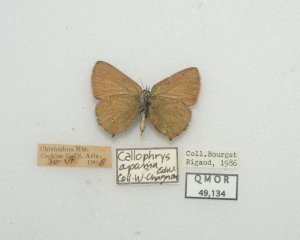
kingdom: Animalia
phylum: Arthropoda
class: Insecta
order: Lepidoptera
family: Lycaenidae
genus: Callophrys
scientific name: Callophrys affinis
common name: Western Green Hairstreak
